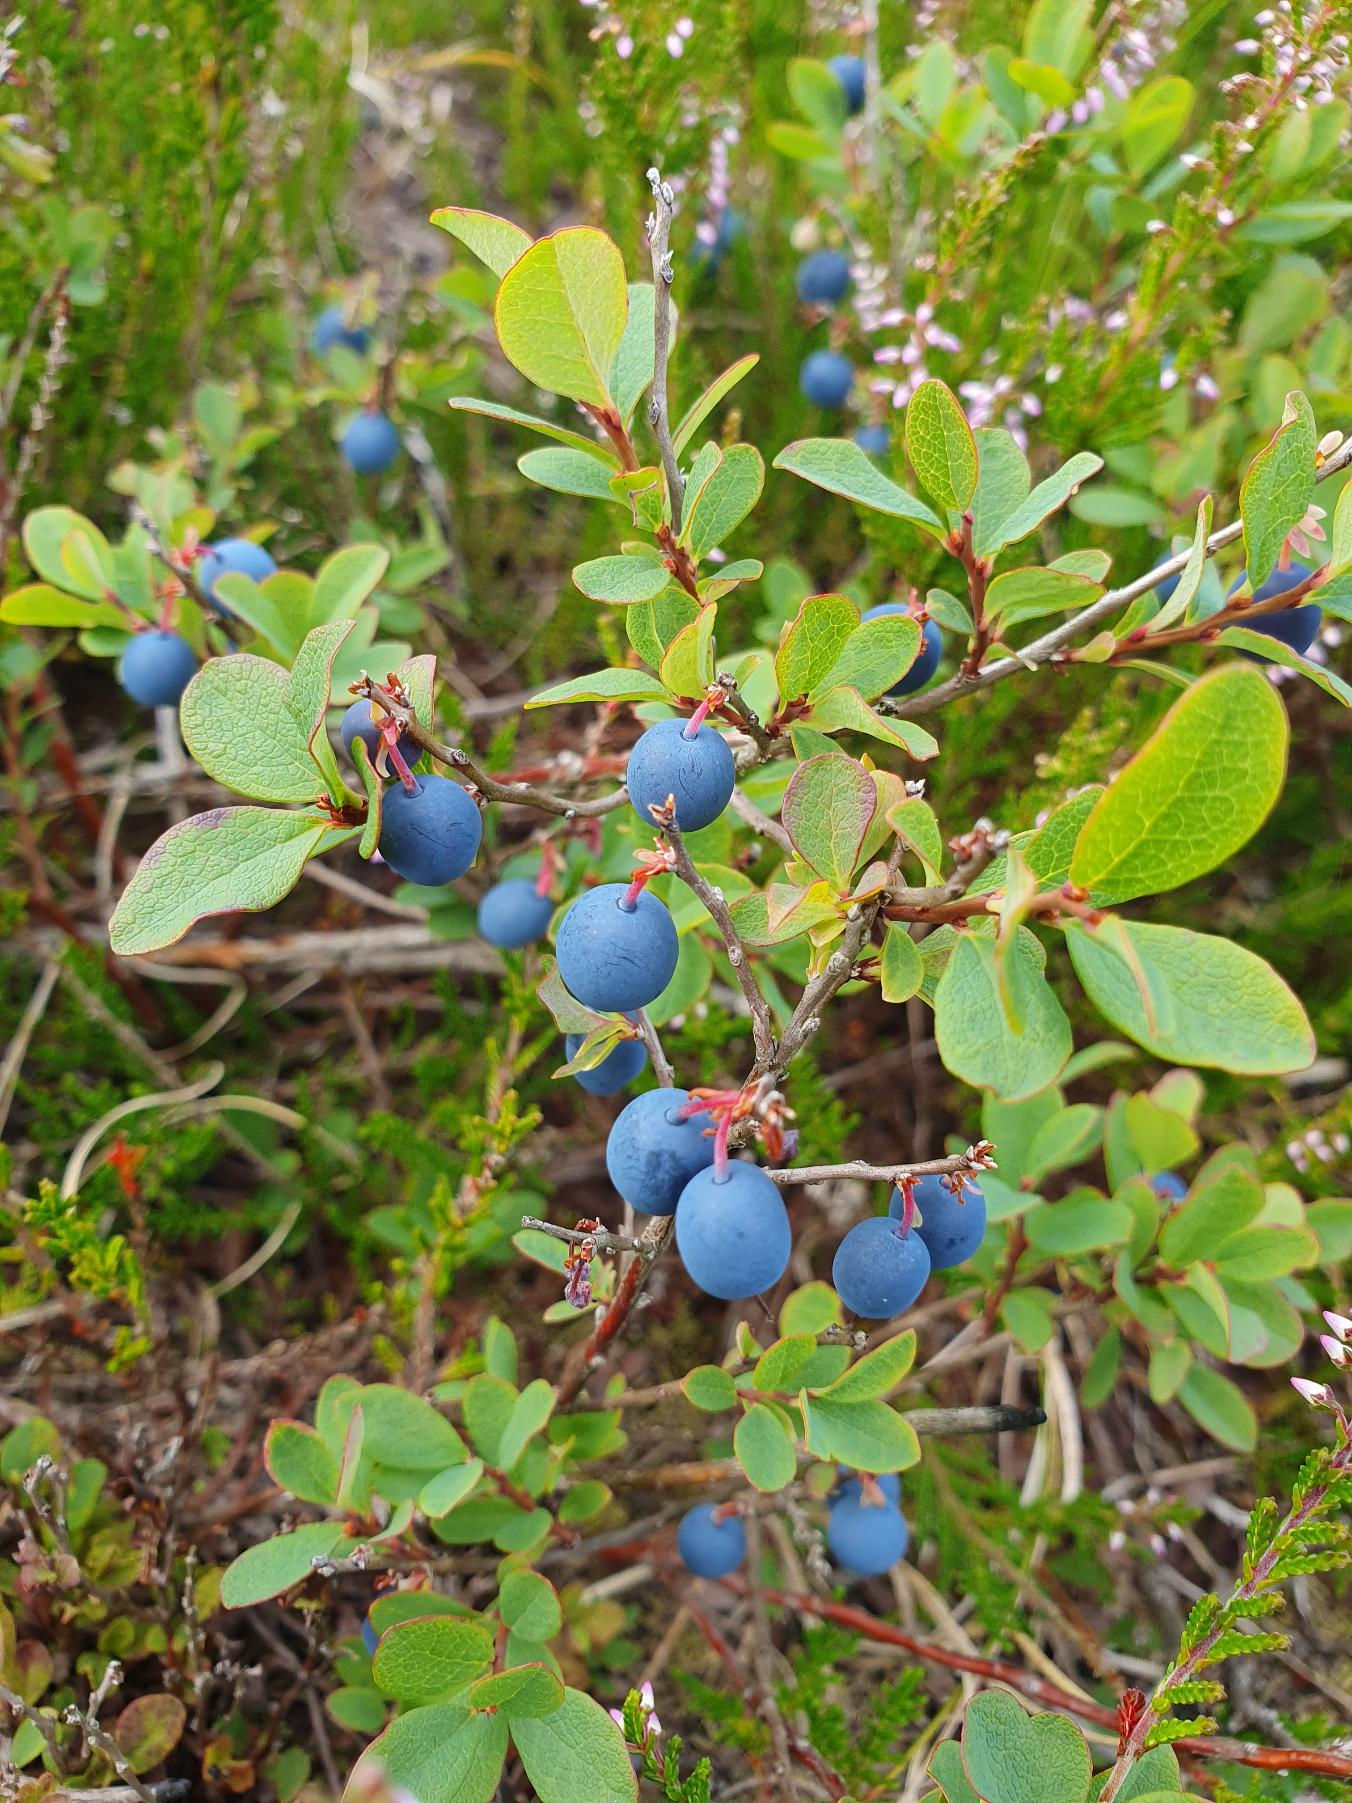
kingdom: Plantae
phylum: Tracheophyta
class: Magnoliopsida
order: Ericales
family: Ericaceae
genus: Vaccinium
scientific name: Vaccinium uliginosum
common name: Mose-bølle
